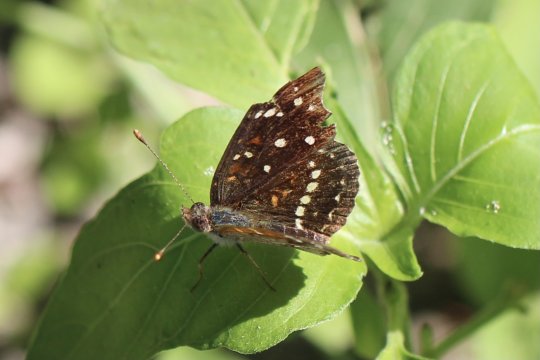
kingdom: Animalia
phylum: Arthropoda
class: Insecta
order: Lepidoptera
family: Nymphalidae
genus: Anthanassa
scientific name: Anthanassa texana
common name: Texan Crescent
